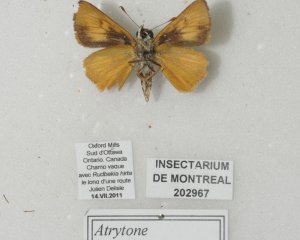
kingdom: Animalia
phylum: Arthropoda
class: Insecta
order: Lepidoptera
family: Hesperiidae
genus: Atrytone
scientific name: Atrytone delaware
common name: Delaware Skipper
